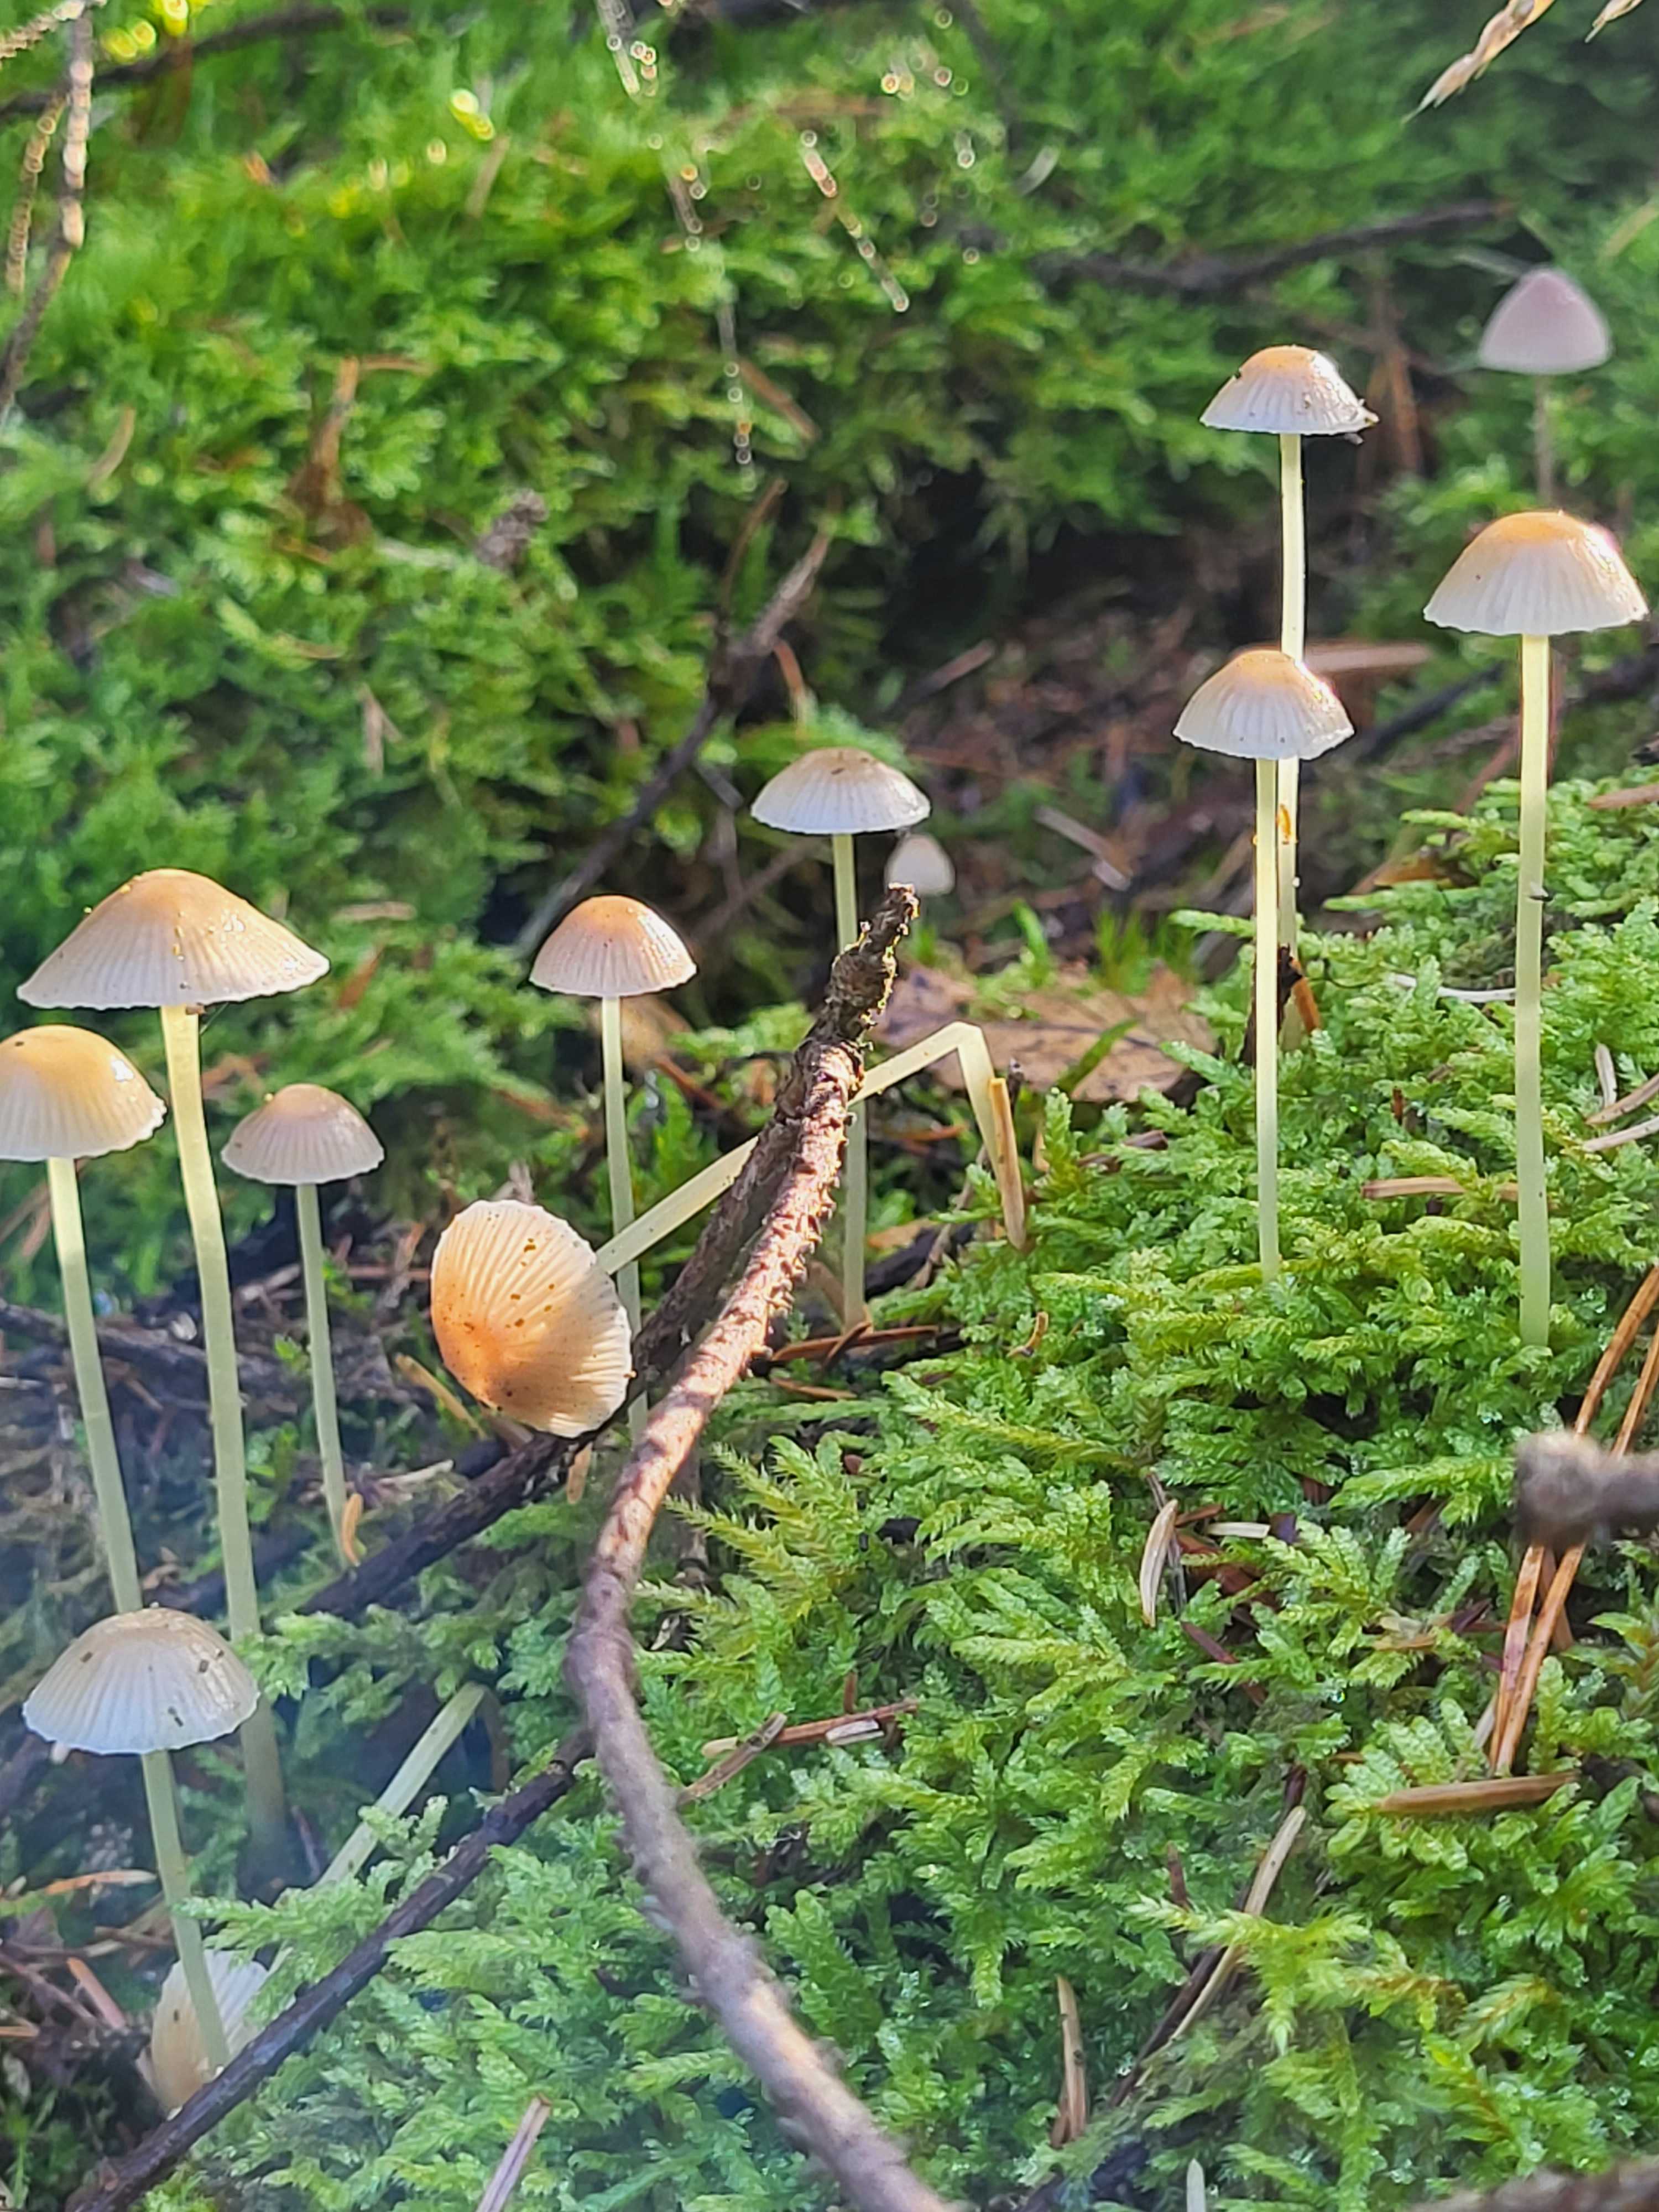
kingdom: Fungi
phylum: Basidiomycota
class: Agaricomycetes
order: Agaricales
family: Mycenaceae
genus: Mycena
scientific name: Mycena epipterygia
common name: gulstokket huesvamp
